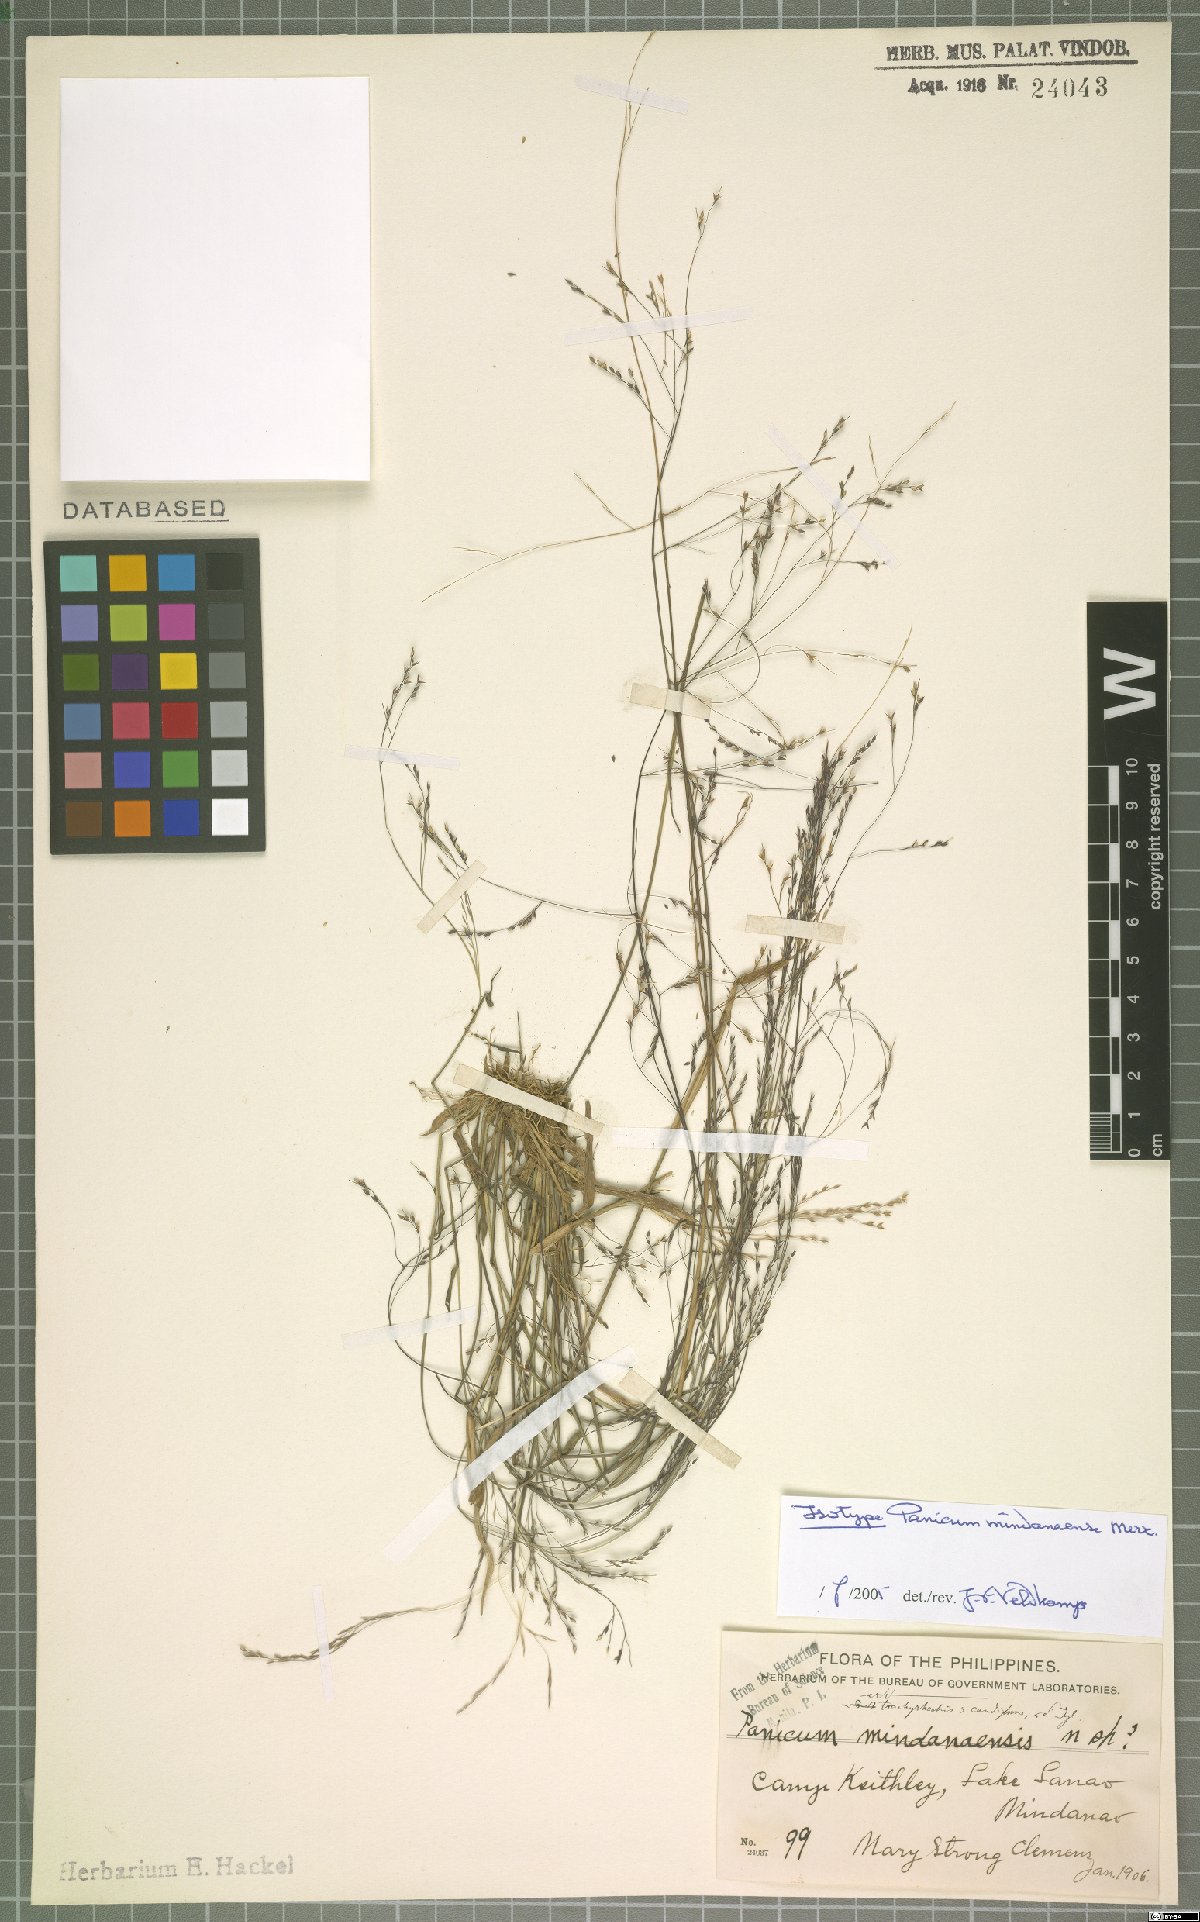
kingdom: Plantae
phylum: Tracheophyta
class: Liliopsida
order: Poales
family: Poaceae
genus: Panicum
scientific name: Panicum mindanaense
